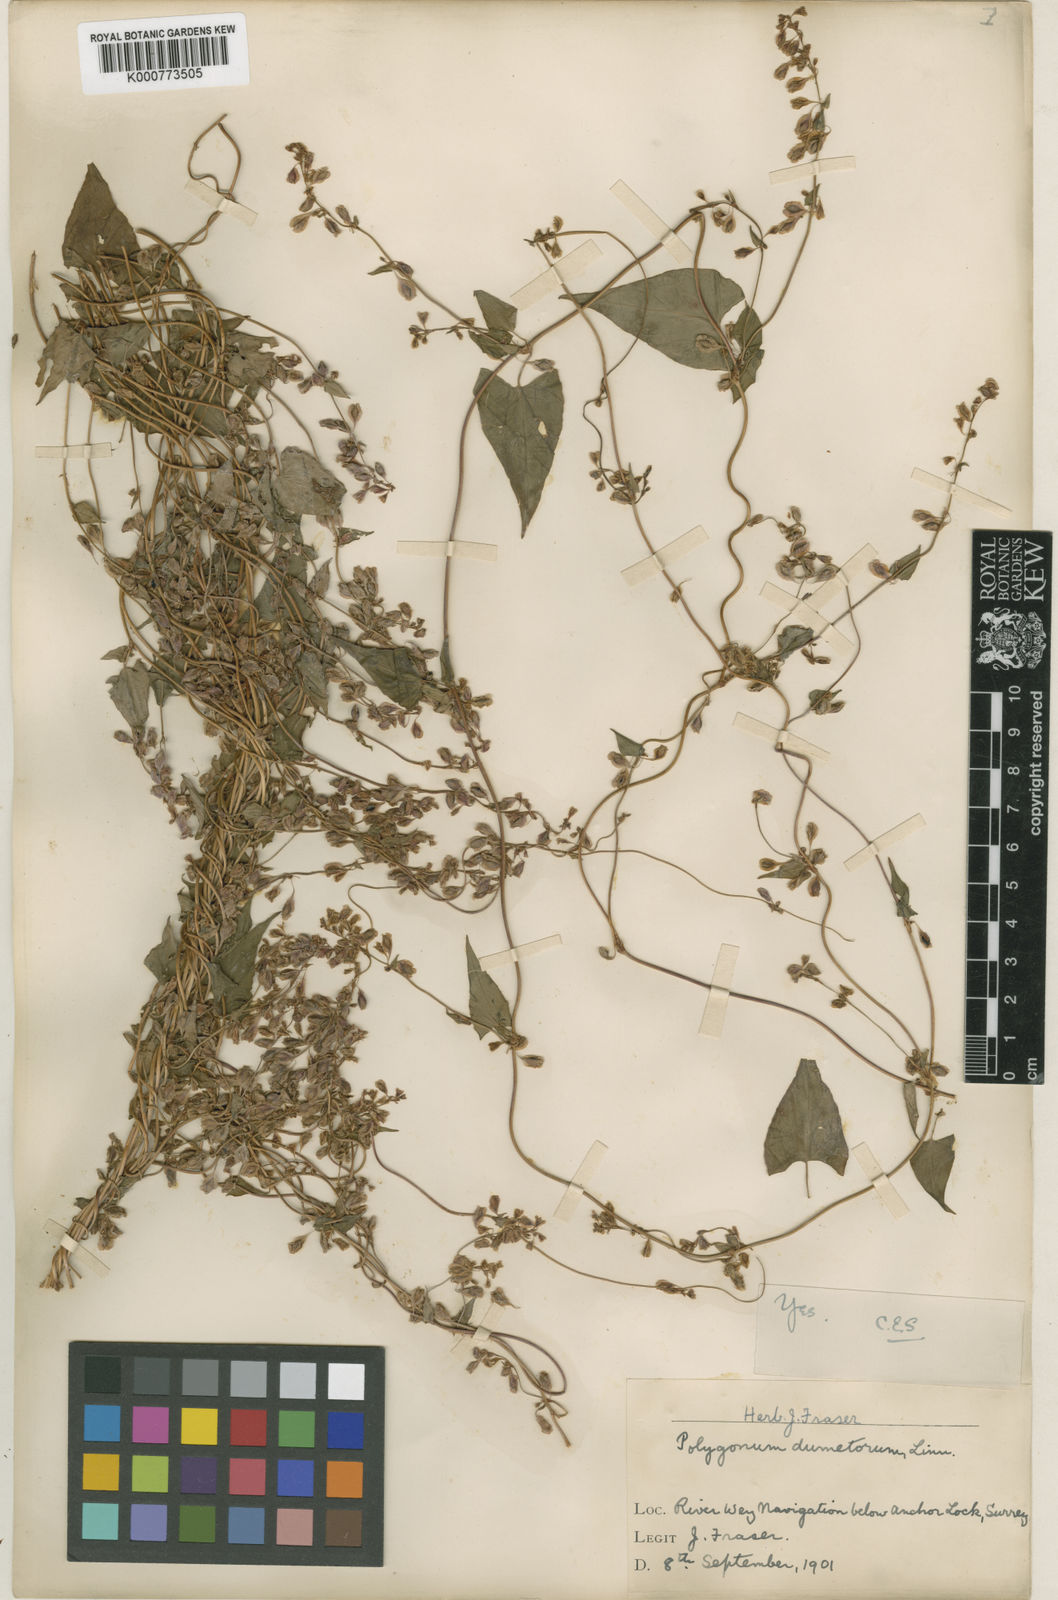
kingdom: Plantae
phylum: Tracheophyta
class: Magnoliopsida
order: Caryophyllales
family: Polygonaceae
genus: Fallopia
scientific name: Fallopia dumetorum
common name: Copse-bindweed
